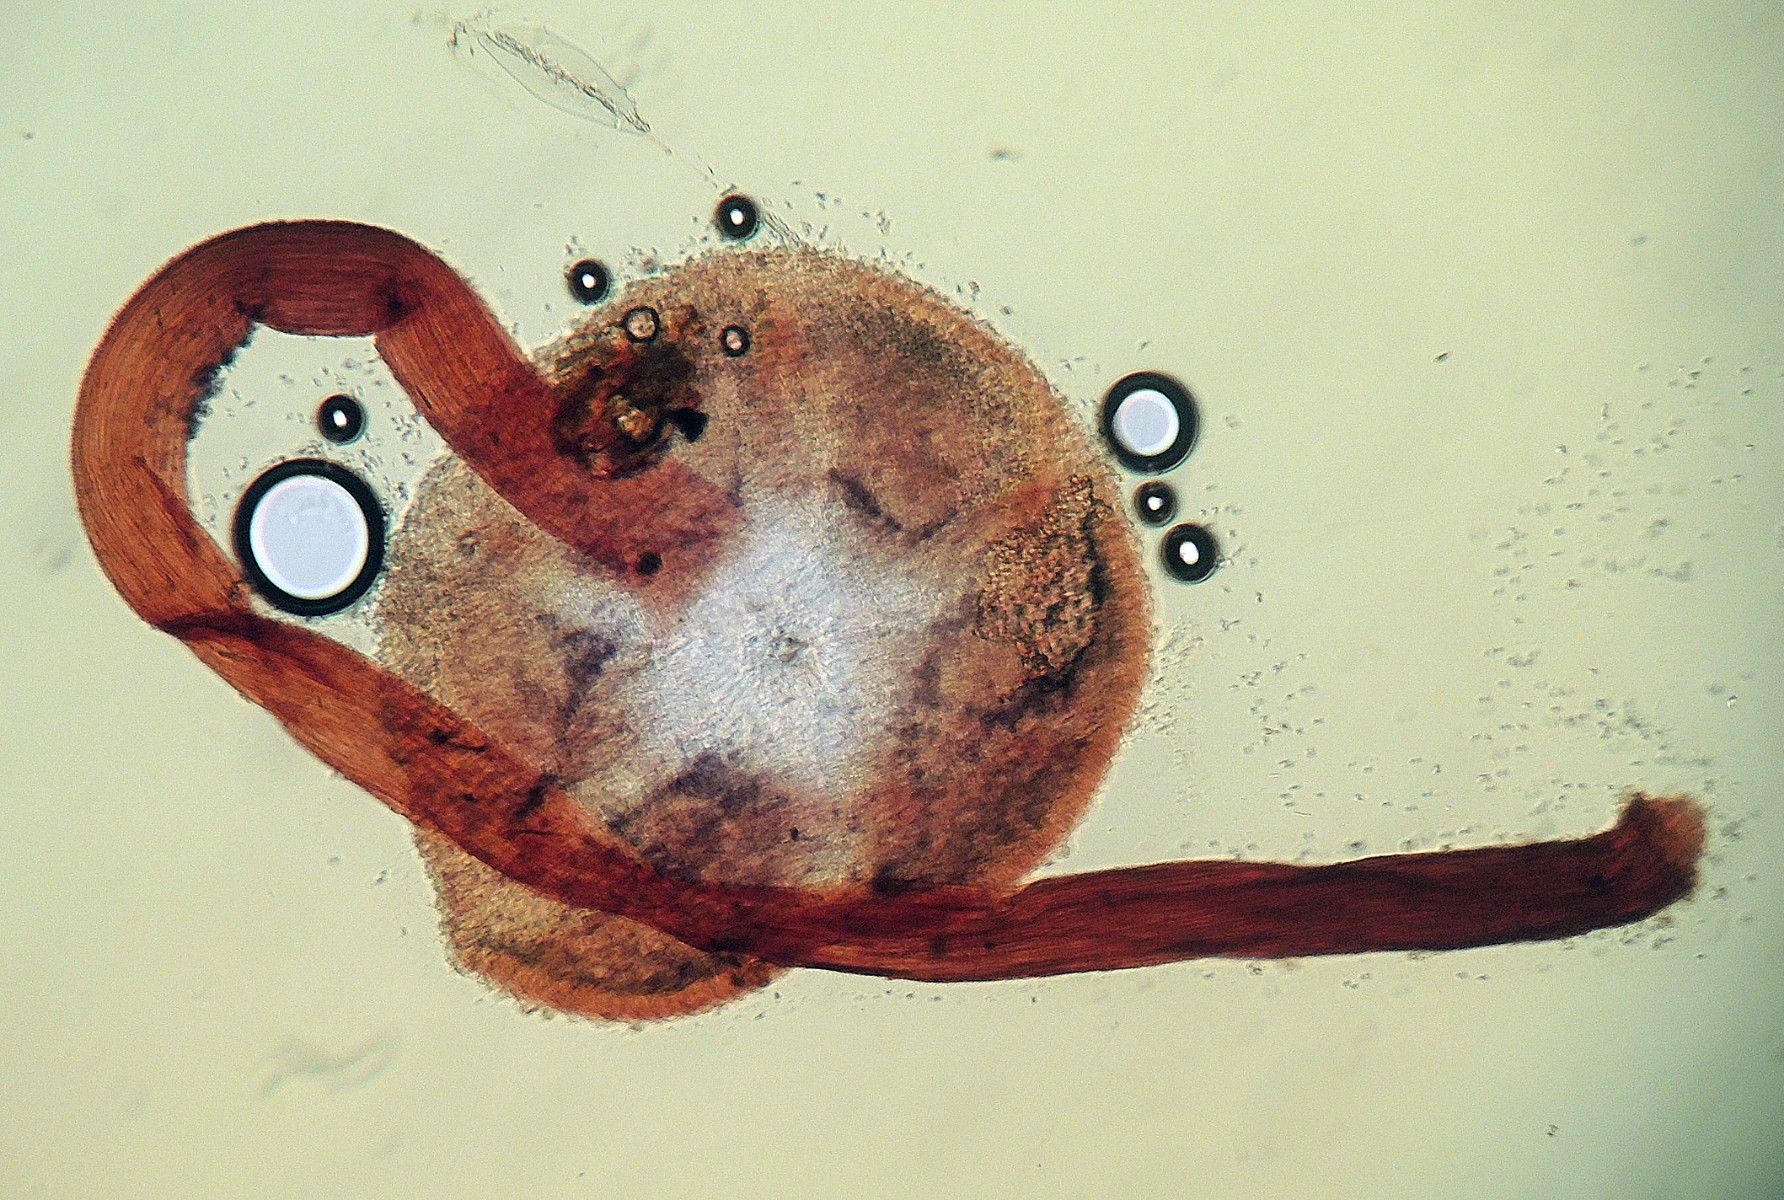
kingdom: Fungi
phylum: Basidiomycota
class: Agaricomycetes
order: Agaricales
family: Mycenaceae
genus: Hemimycena
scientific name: Hemimycena
